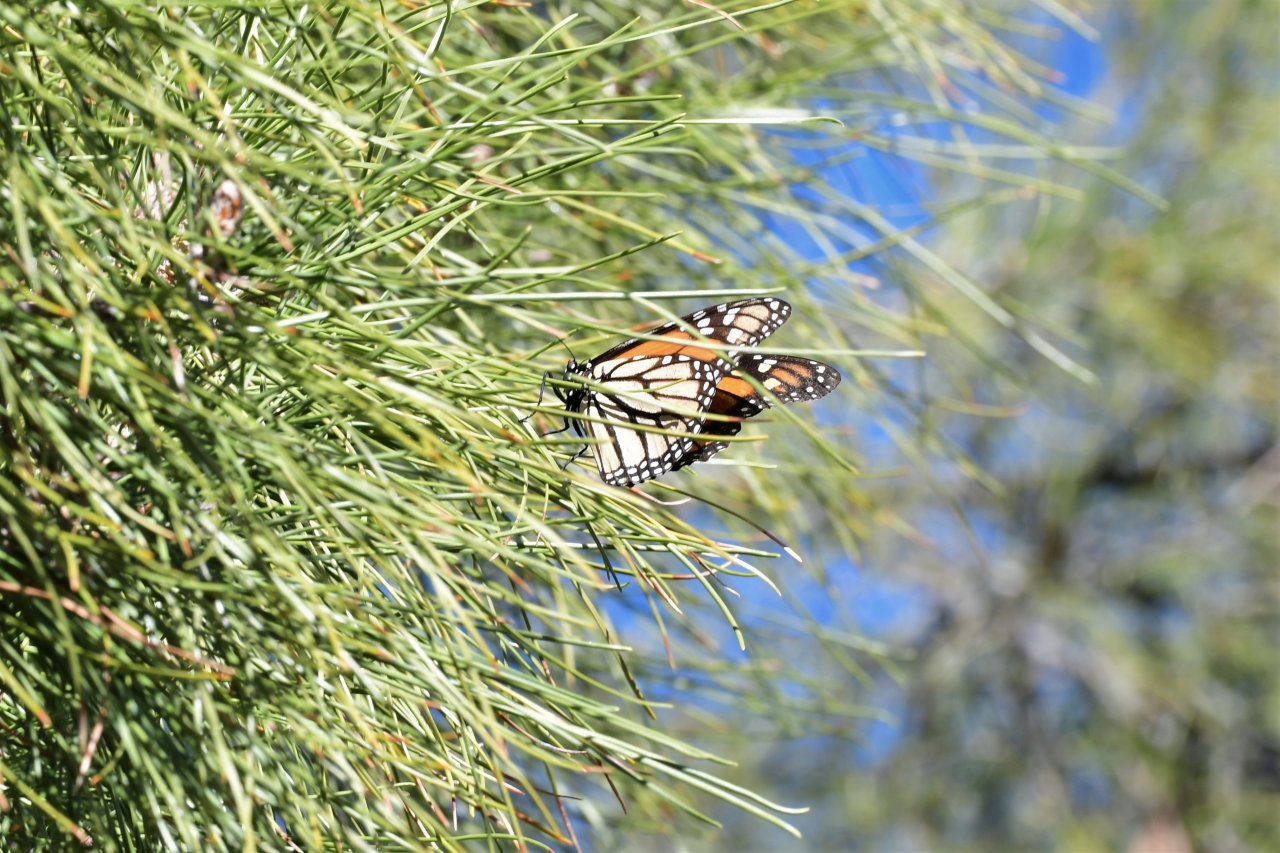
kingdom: Animalia
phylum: Arthropoda
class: Insecta
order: Lepidoptera
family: Nymphalidae
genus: Danaus
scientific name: Danaus plexippus
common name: Monarch
